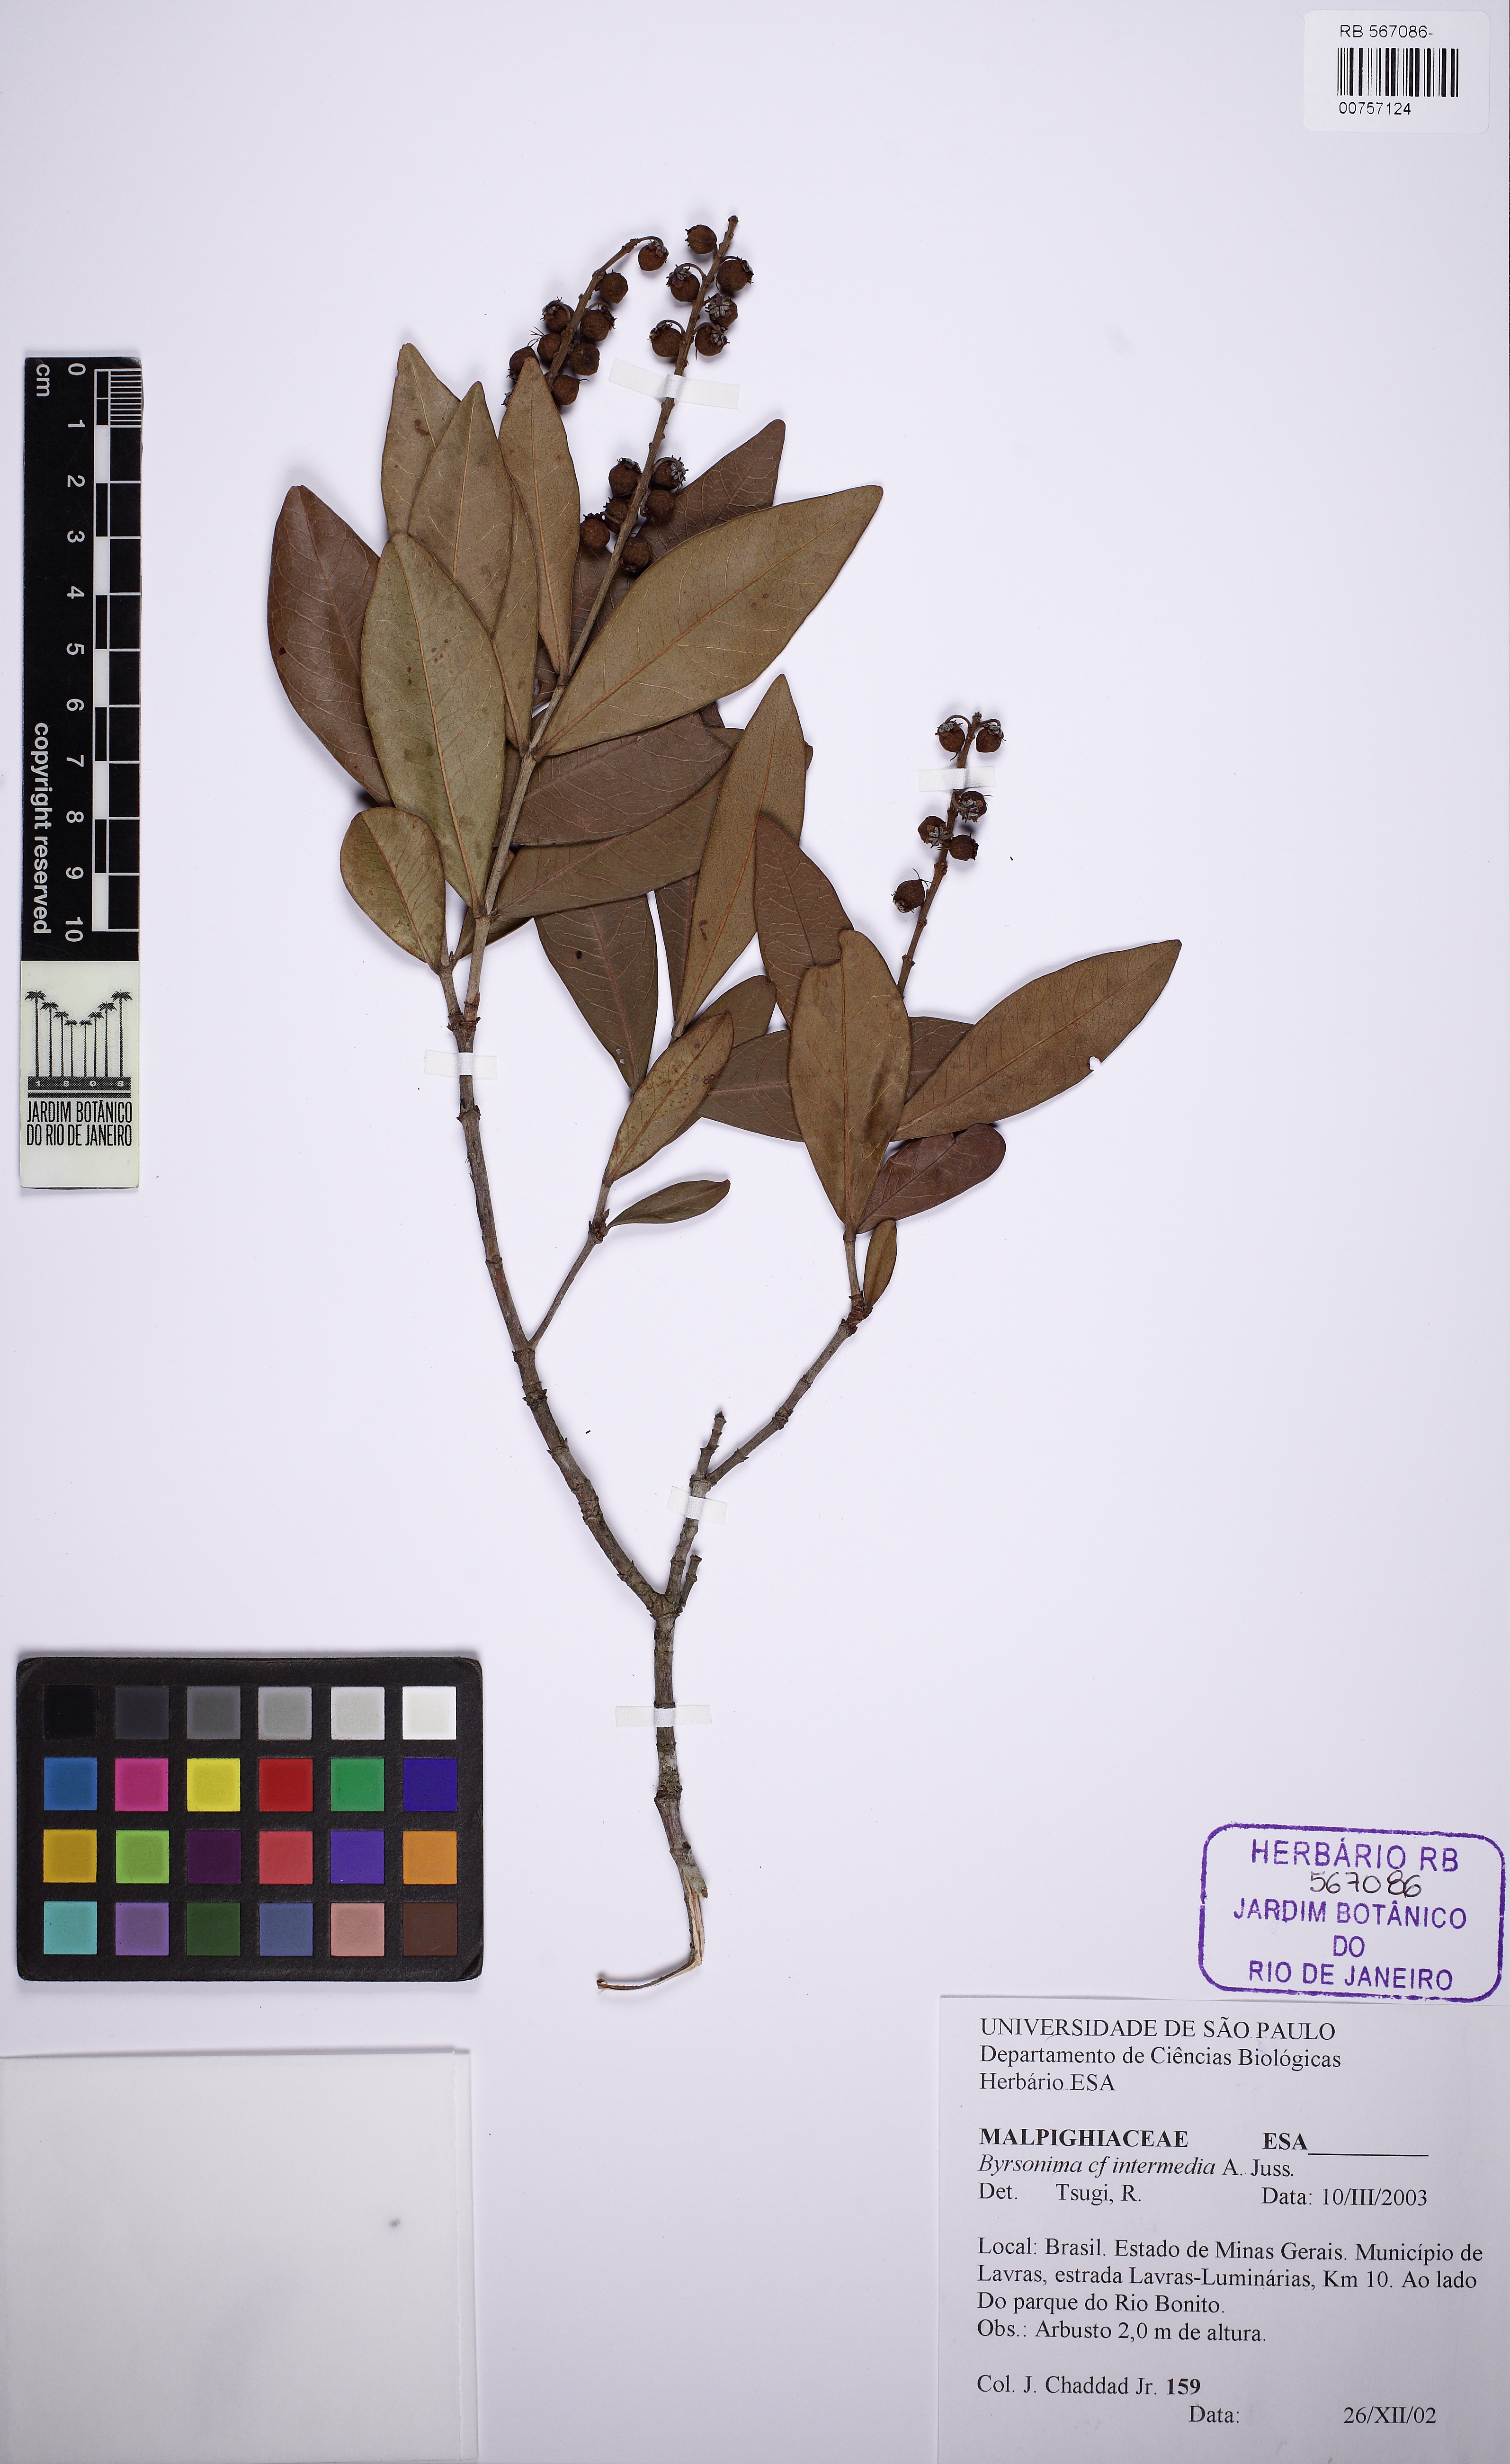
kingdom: Plantae
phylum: Tracheophyta
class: Magnoliopsida
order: Malpighiales
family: Malpighiaceae
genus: Byrsonima
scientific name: Byrsonima intermedia
